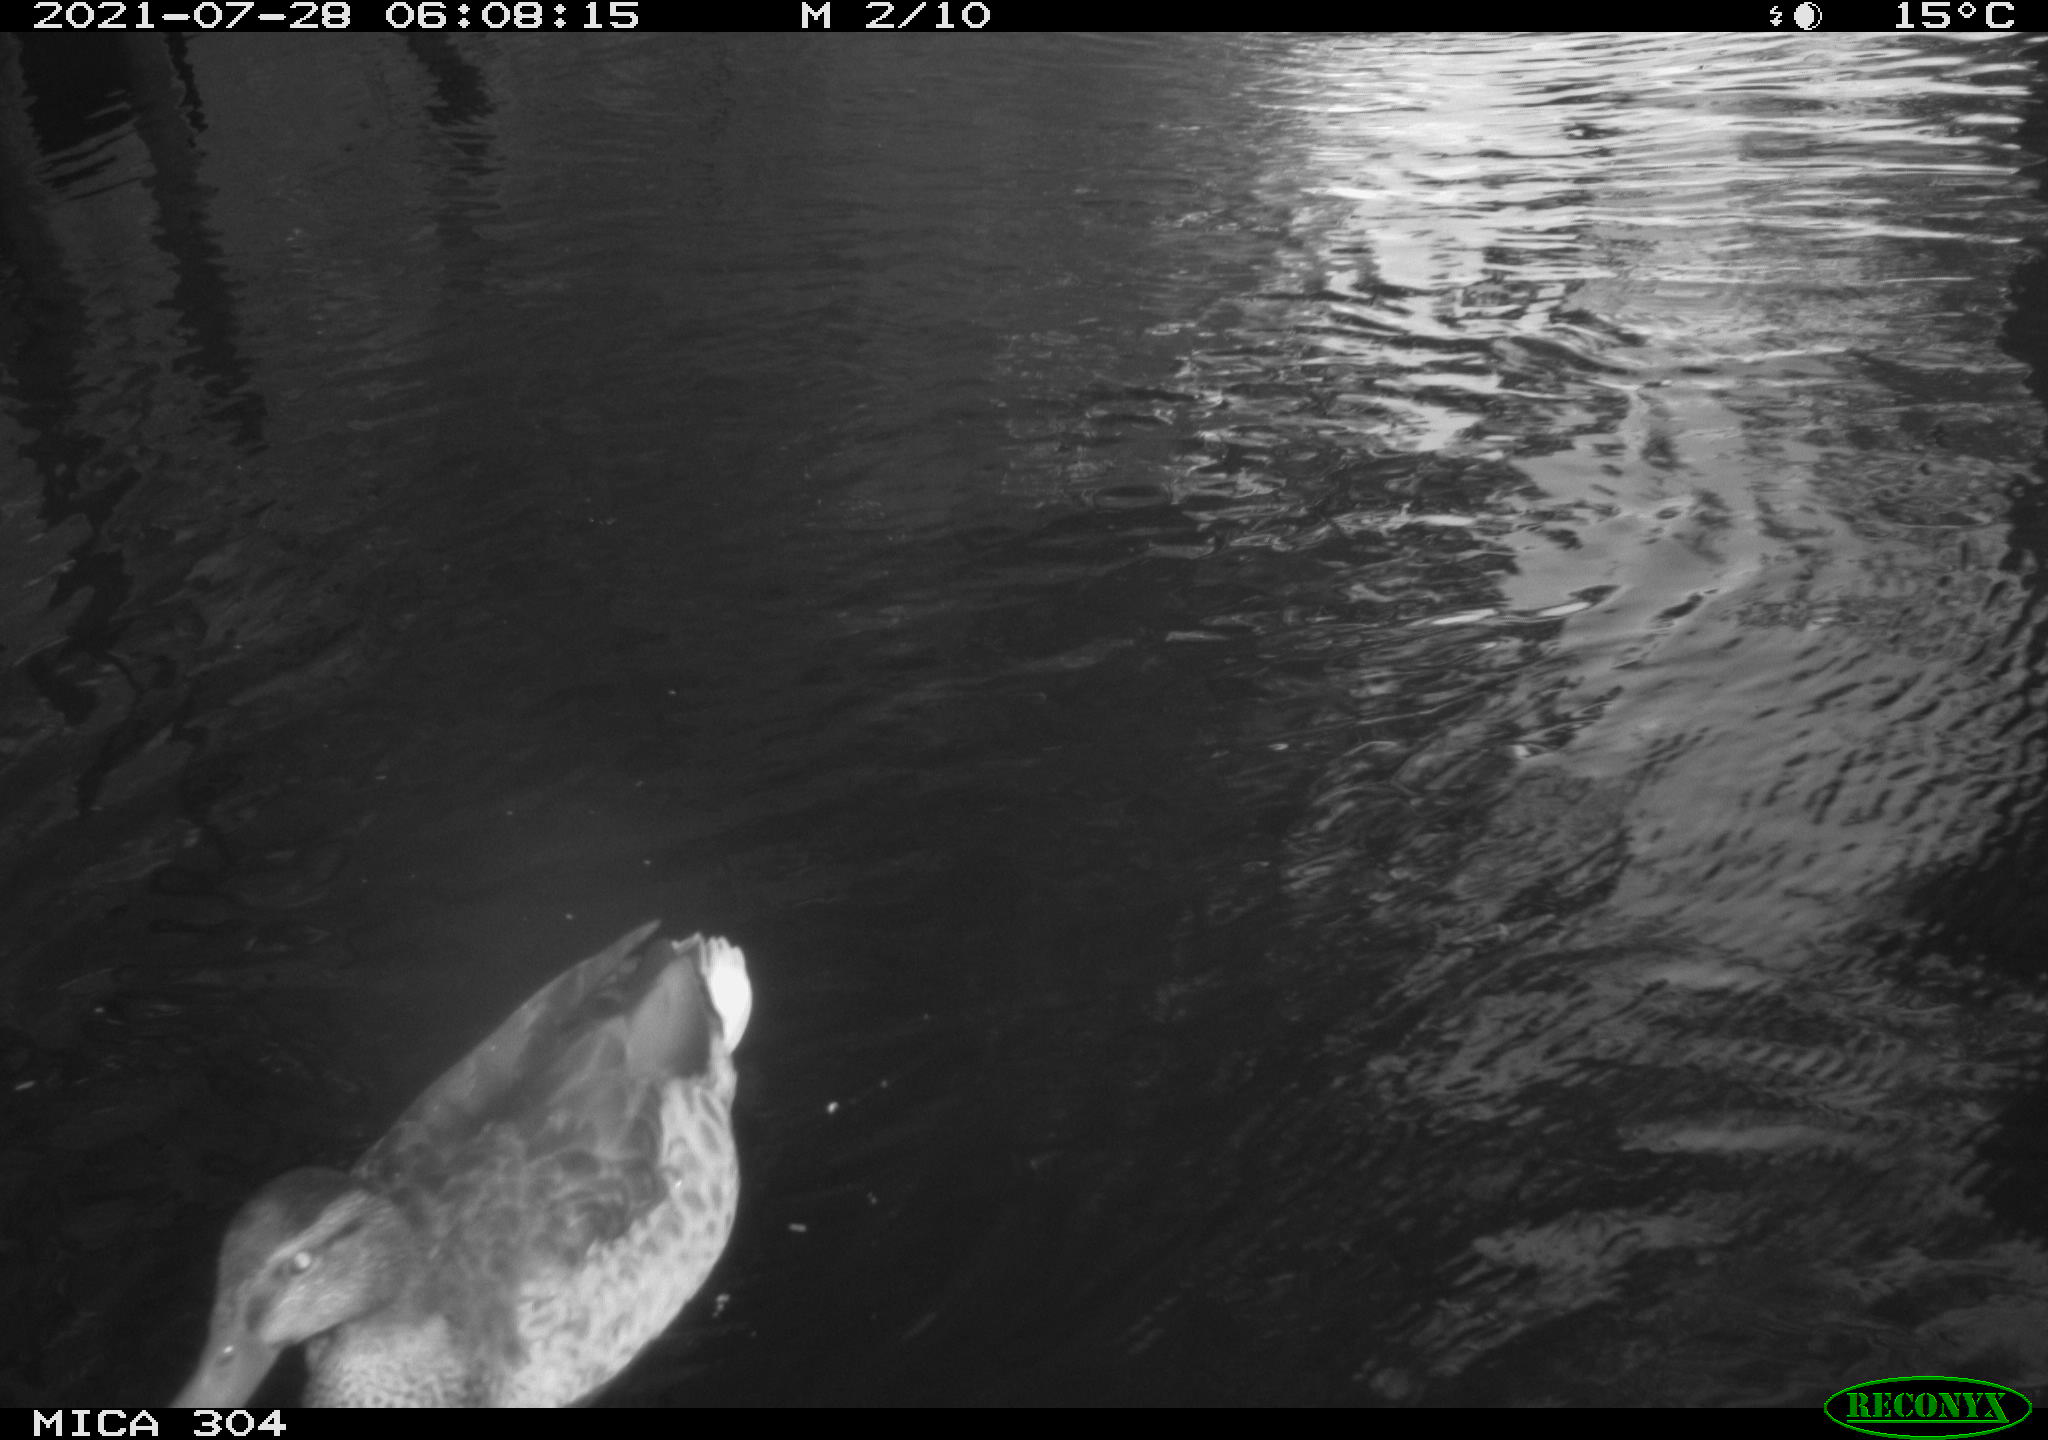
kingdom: Animalia
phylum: Chordata
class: Aves
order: Anseriformes
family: Anatidae
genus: Anas
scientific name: Anas platyrhynchos
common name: Mallard
